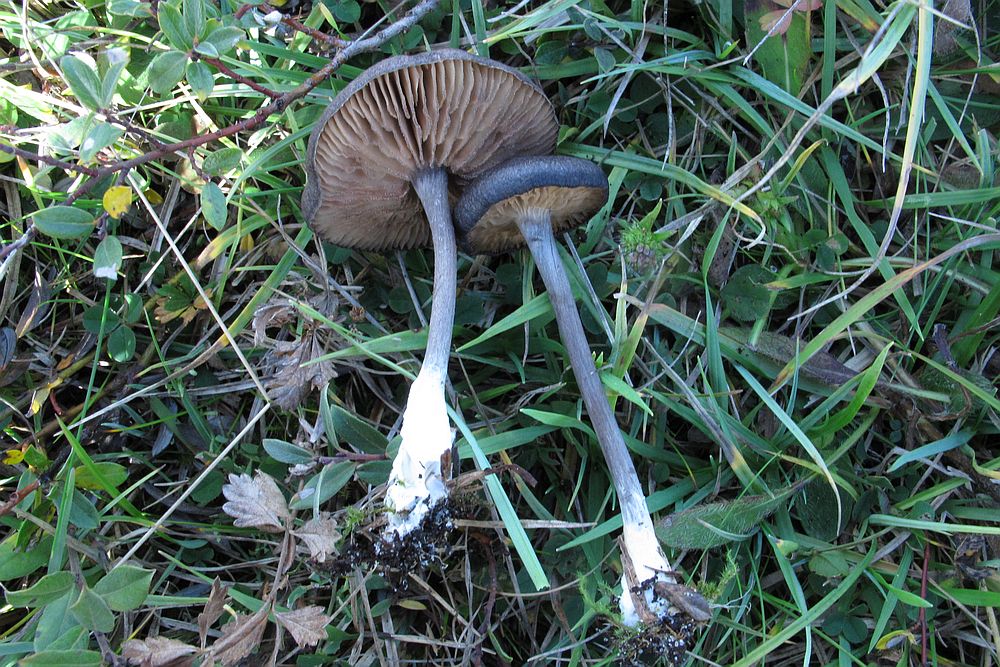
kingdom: Fungi
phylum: Basidiomycota
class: Agaricomycetes
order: Agaricales
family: Entolomataceae
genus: Entoloma
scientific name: Entoloma griseocyaneum
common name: gråblå rødblad
